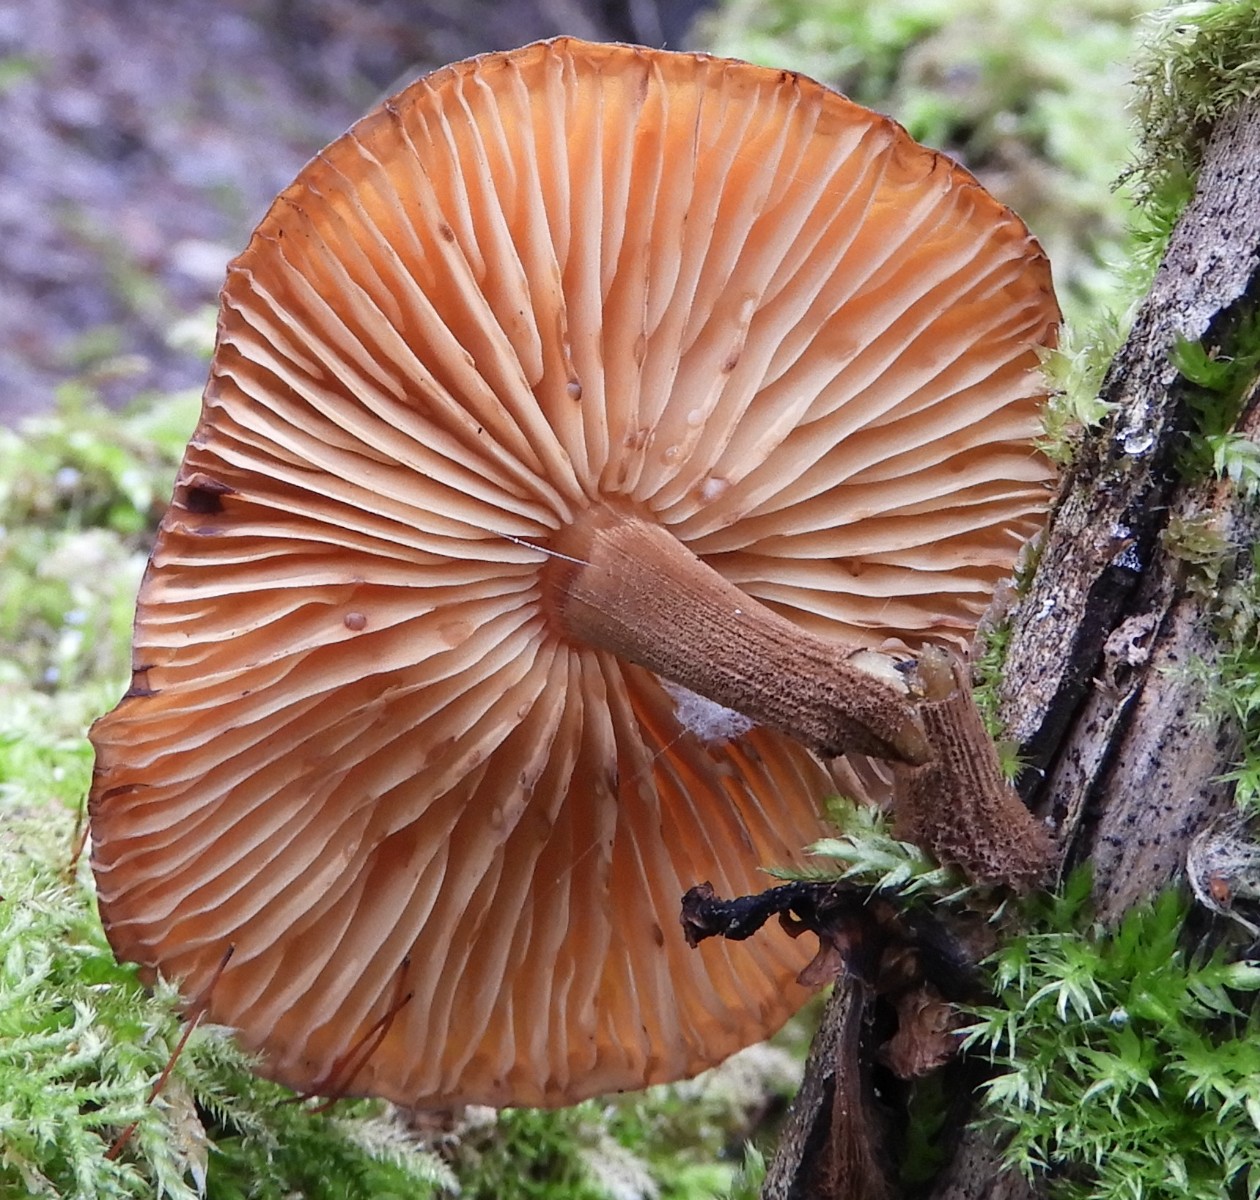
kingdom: Fungi
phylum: Basidiomycota
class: Agaricomycetes
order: Agaricales
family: Physalacriaceae
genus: Flammulina
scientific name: Flammulina
